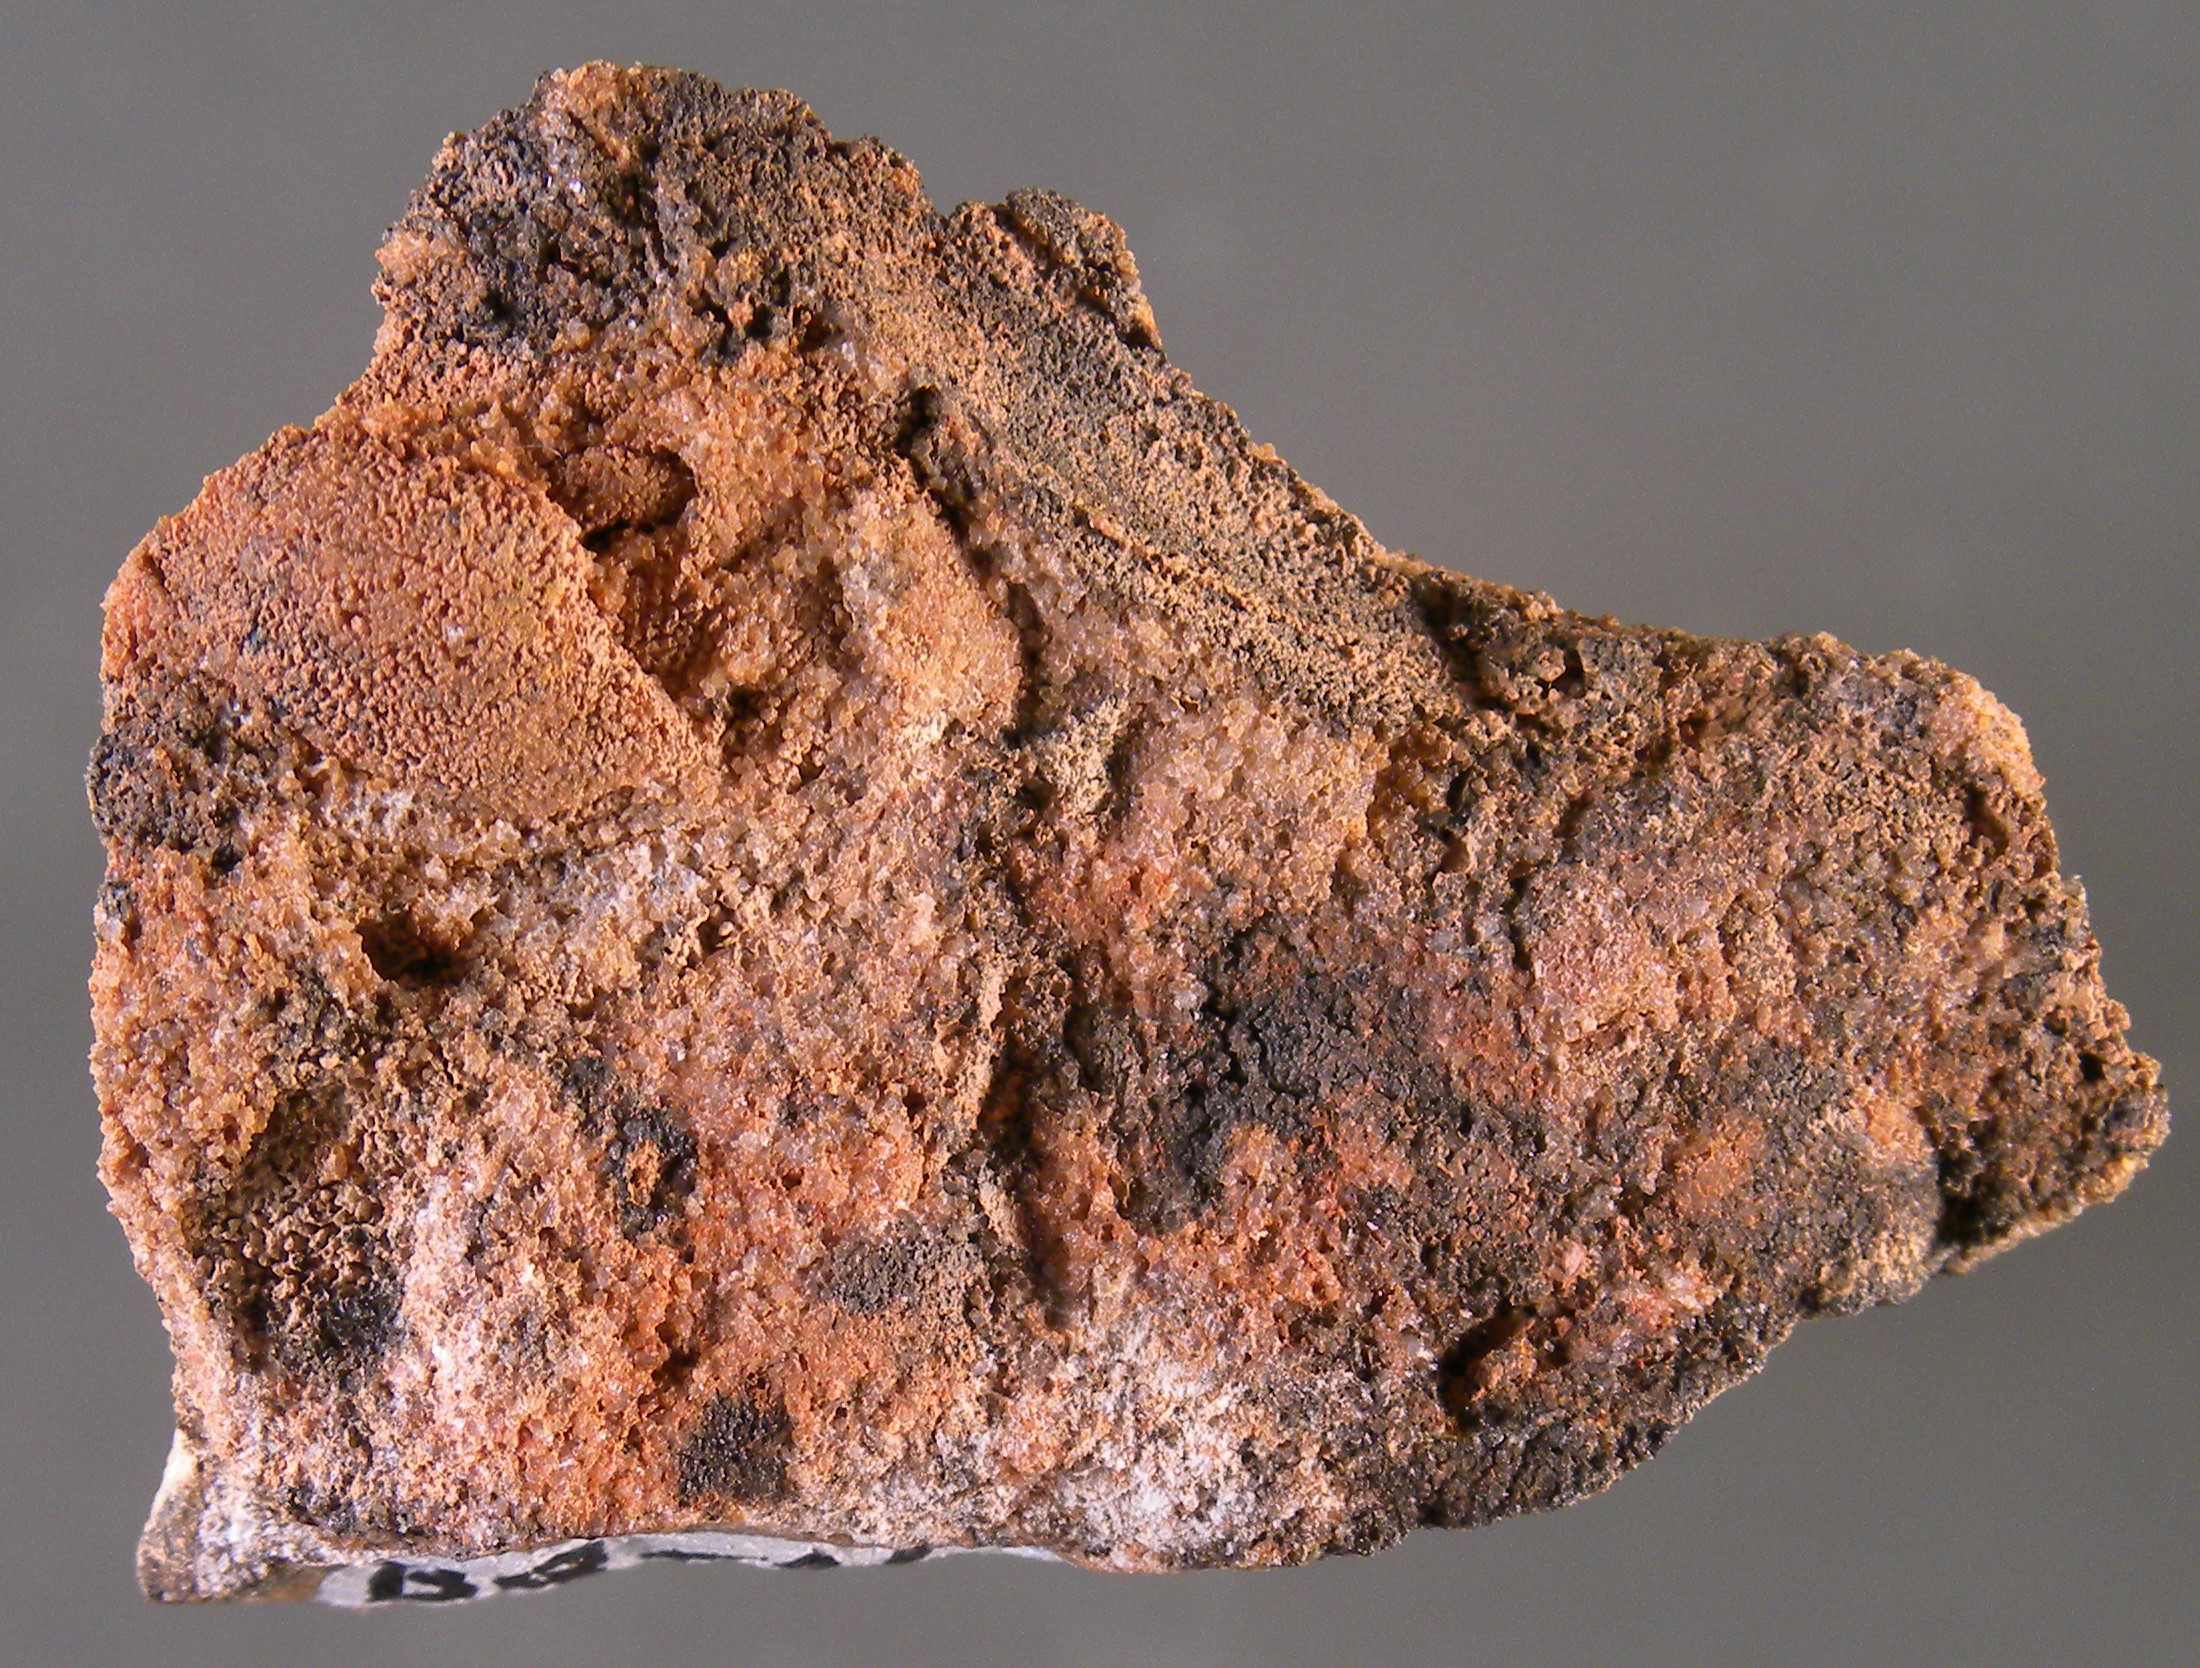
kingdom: Animalia
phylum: Mollusca
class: Bivalvia
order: Nuculanida
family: Nuculanidae
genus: Phestia
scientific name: Phestia
